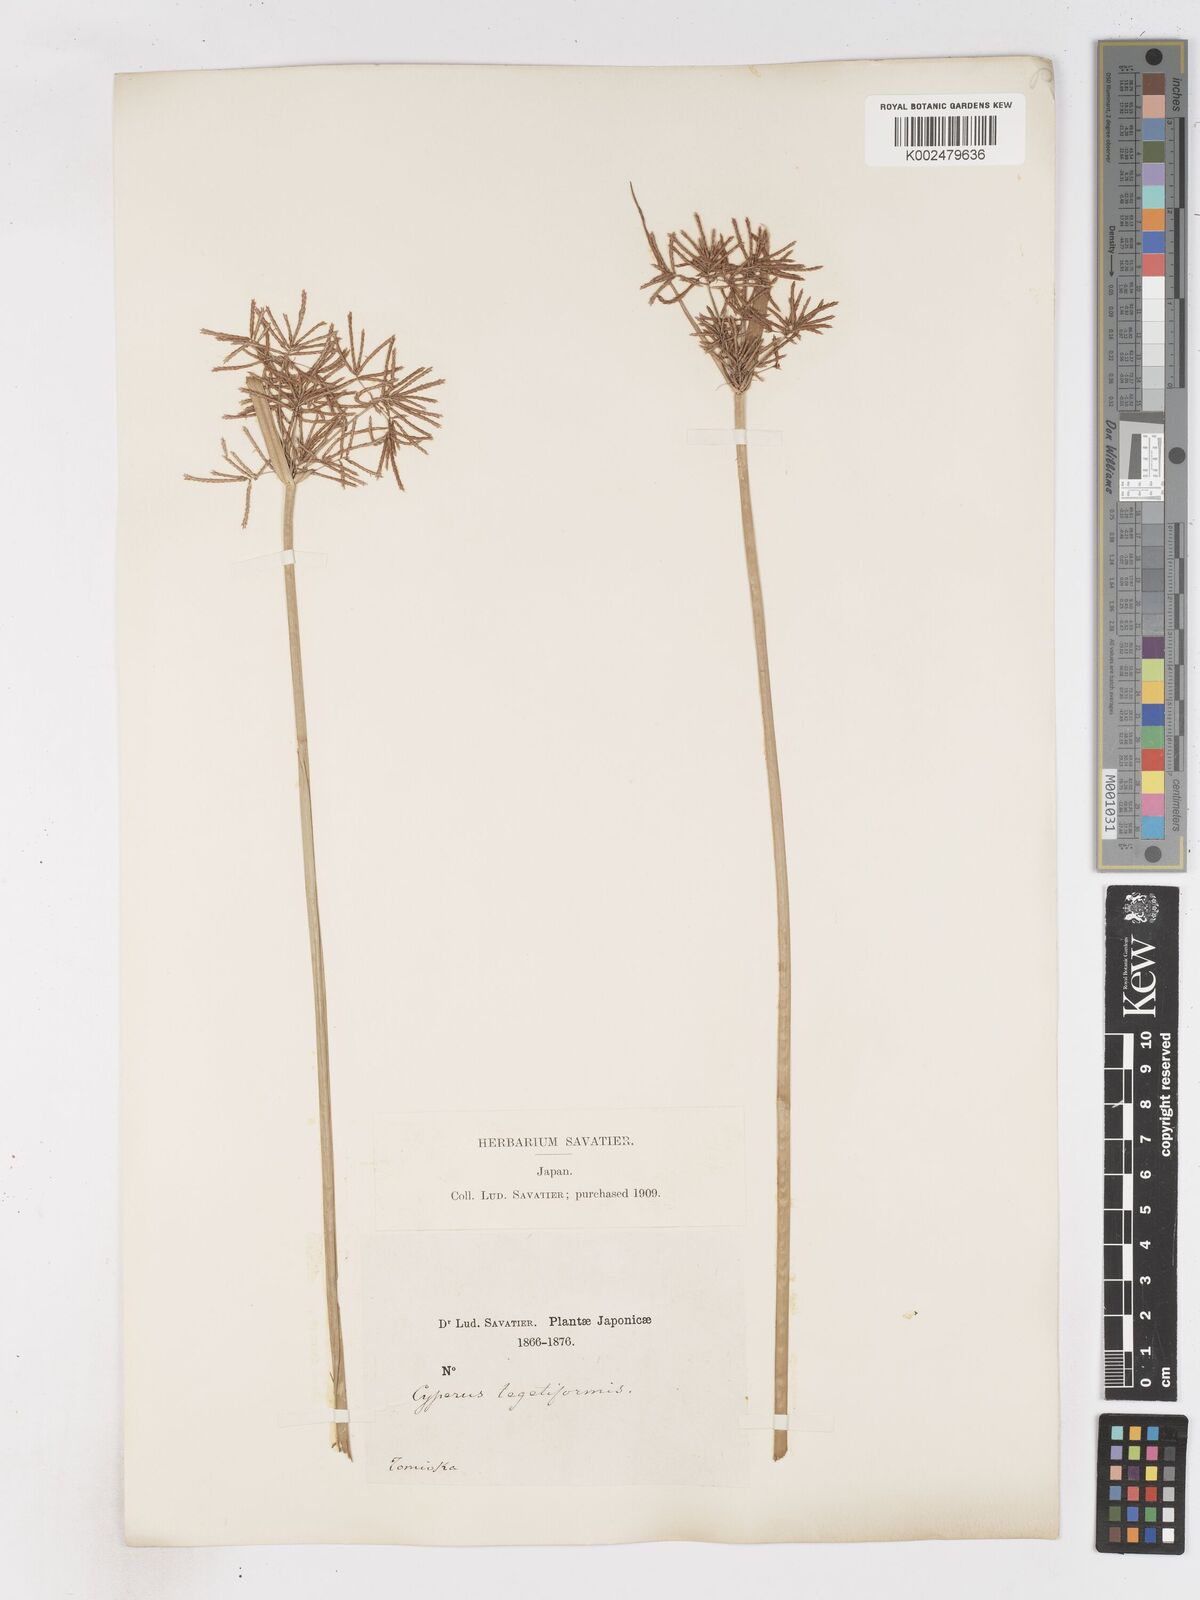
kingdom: Plantae
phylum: Tracheophyta
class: Liliopsida
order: Poales
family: Cyperaceae
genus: Cyperus
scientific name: Cyperus corymbosus
